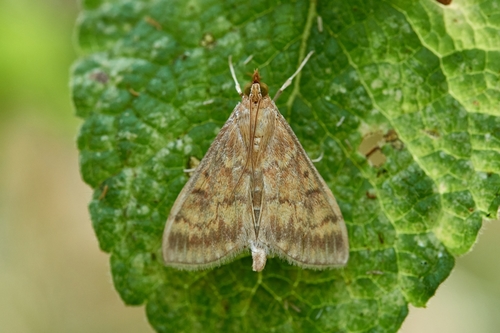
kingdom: Animalia
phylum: Arthropoda
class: Insecta
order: Lepidoptera
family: Crambidae
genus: Ostrinia
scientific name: Ostrinia nubilalis
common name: European corn borer
